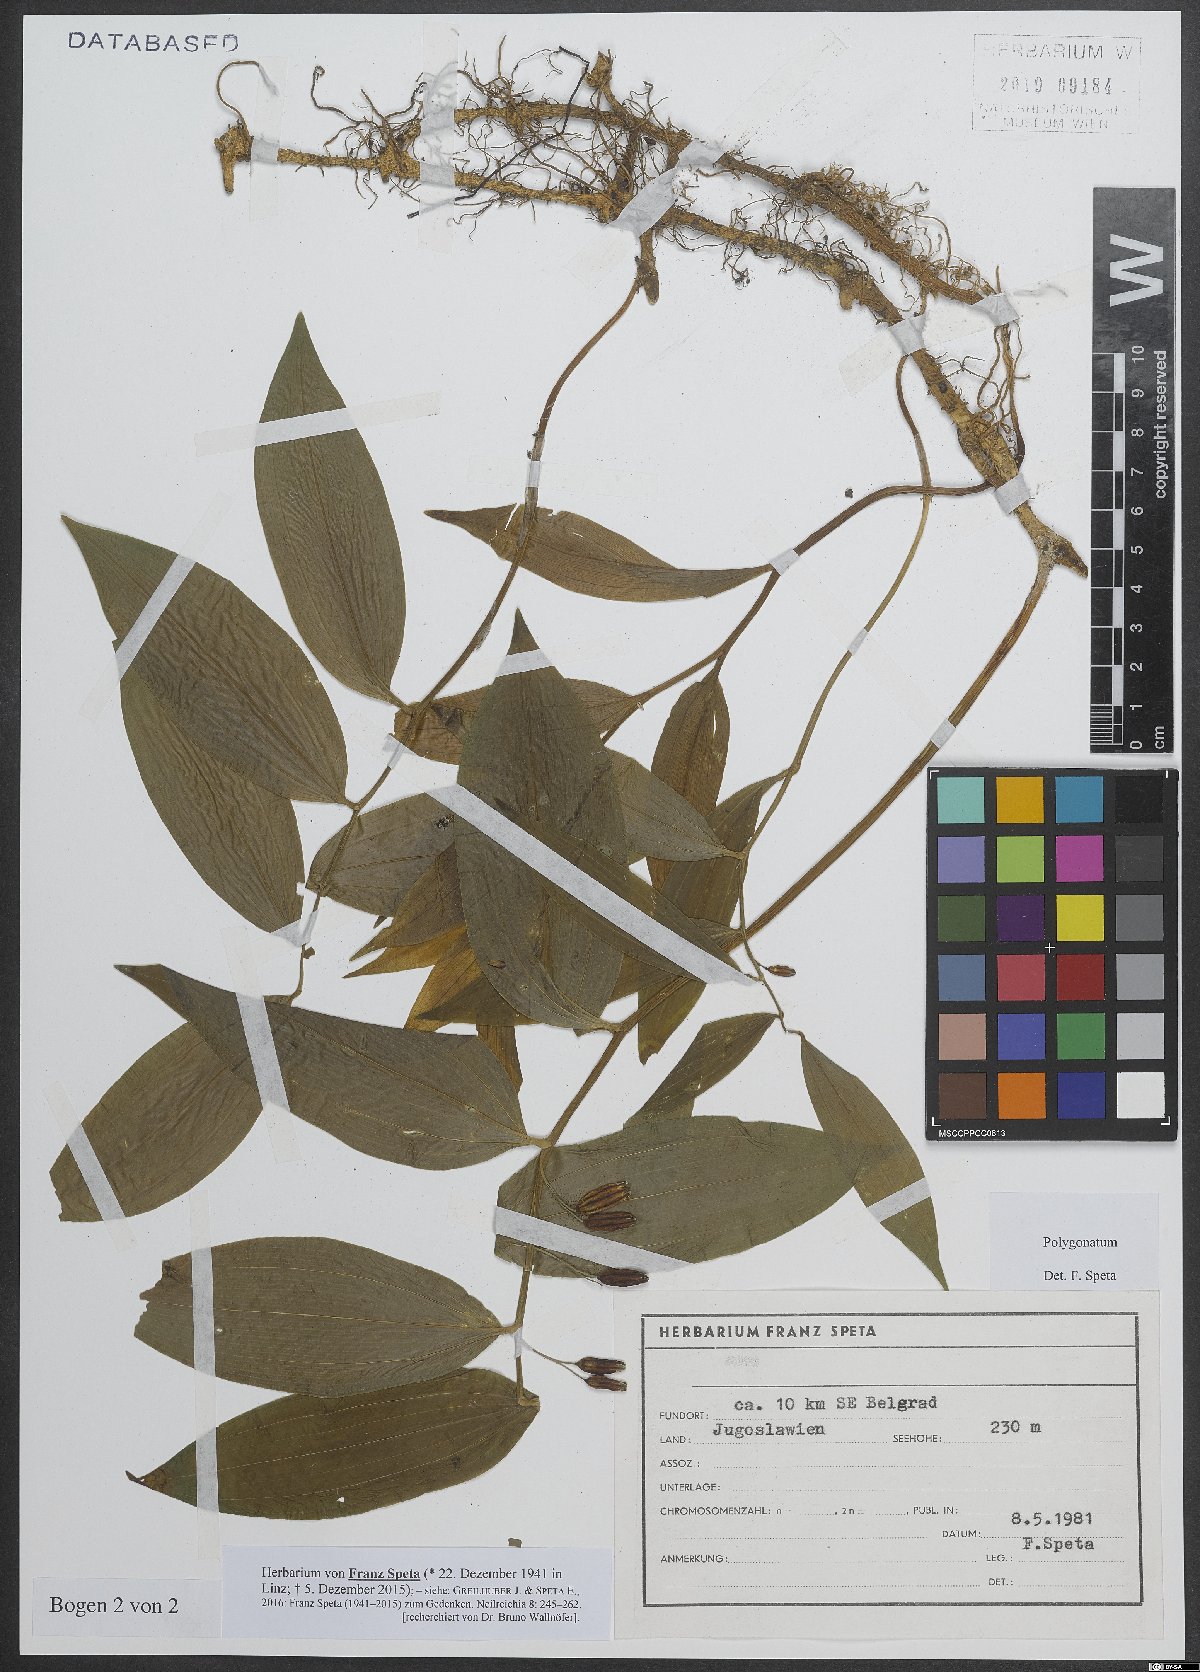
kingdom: Plantae
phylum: Tracheophyta
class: Liliopsida
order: Asparagales
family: Asparagaceae
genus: Polygonatum
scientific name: Polygonatum
